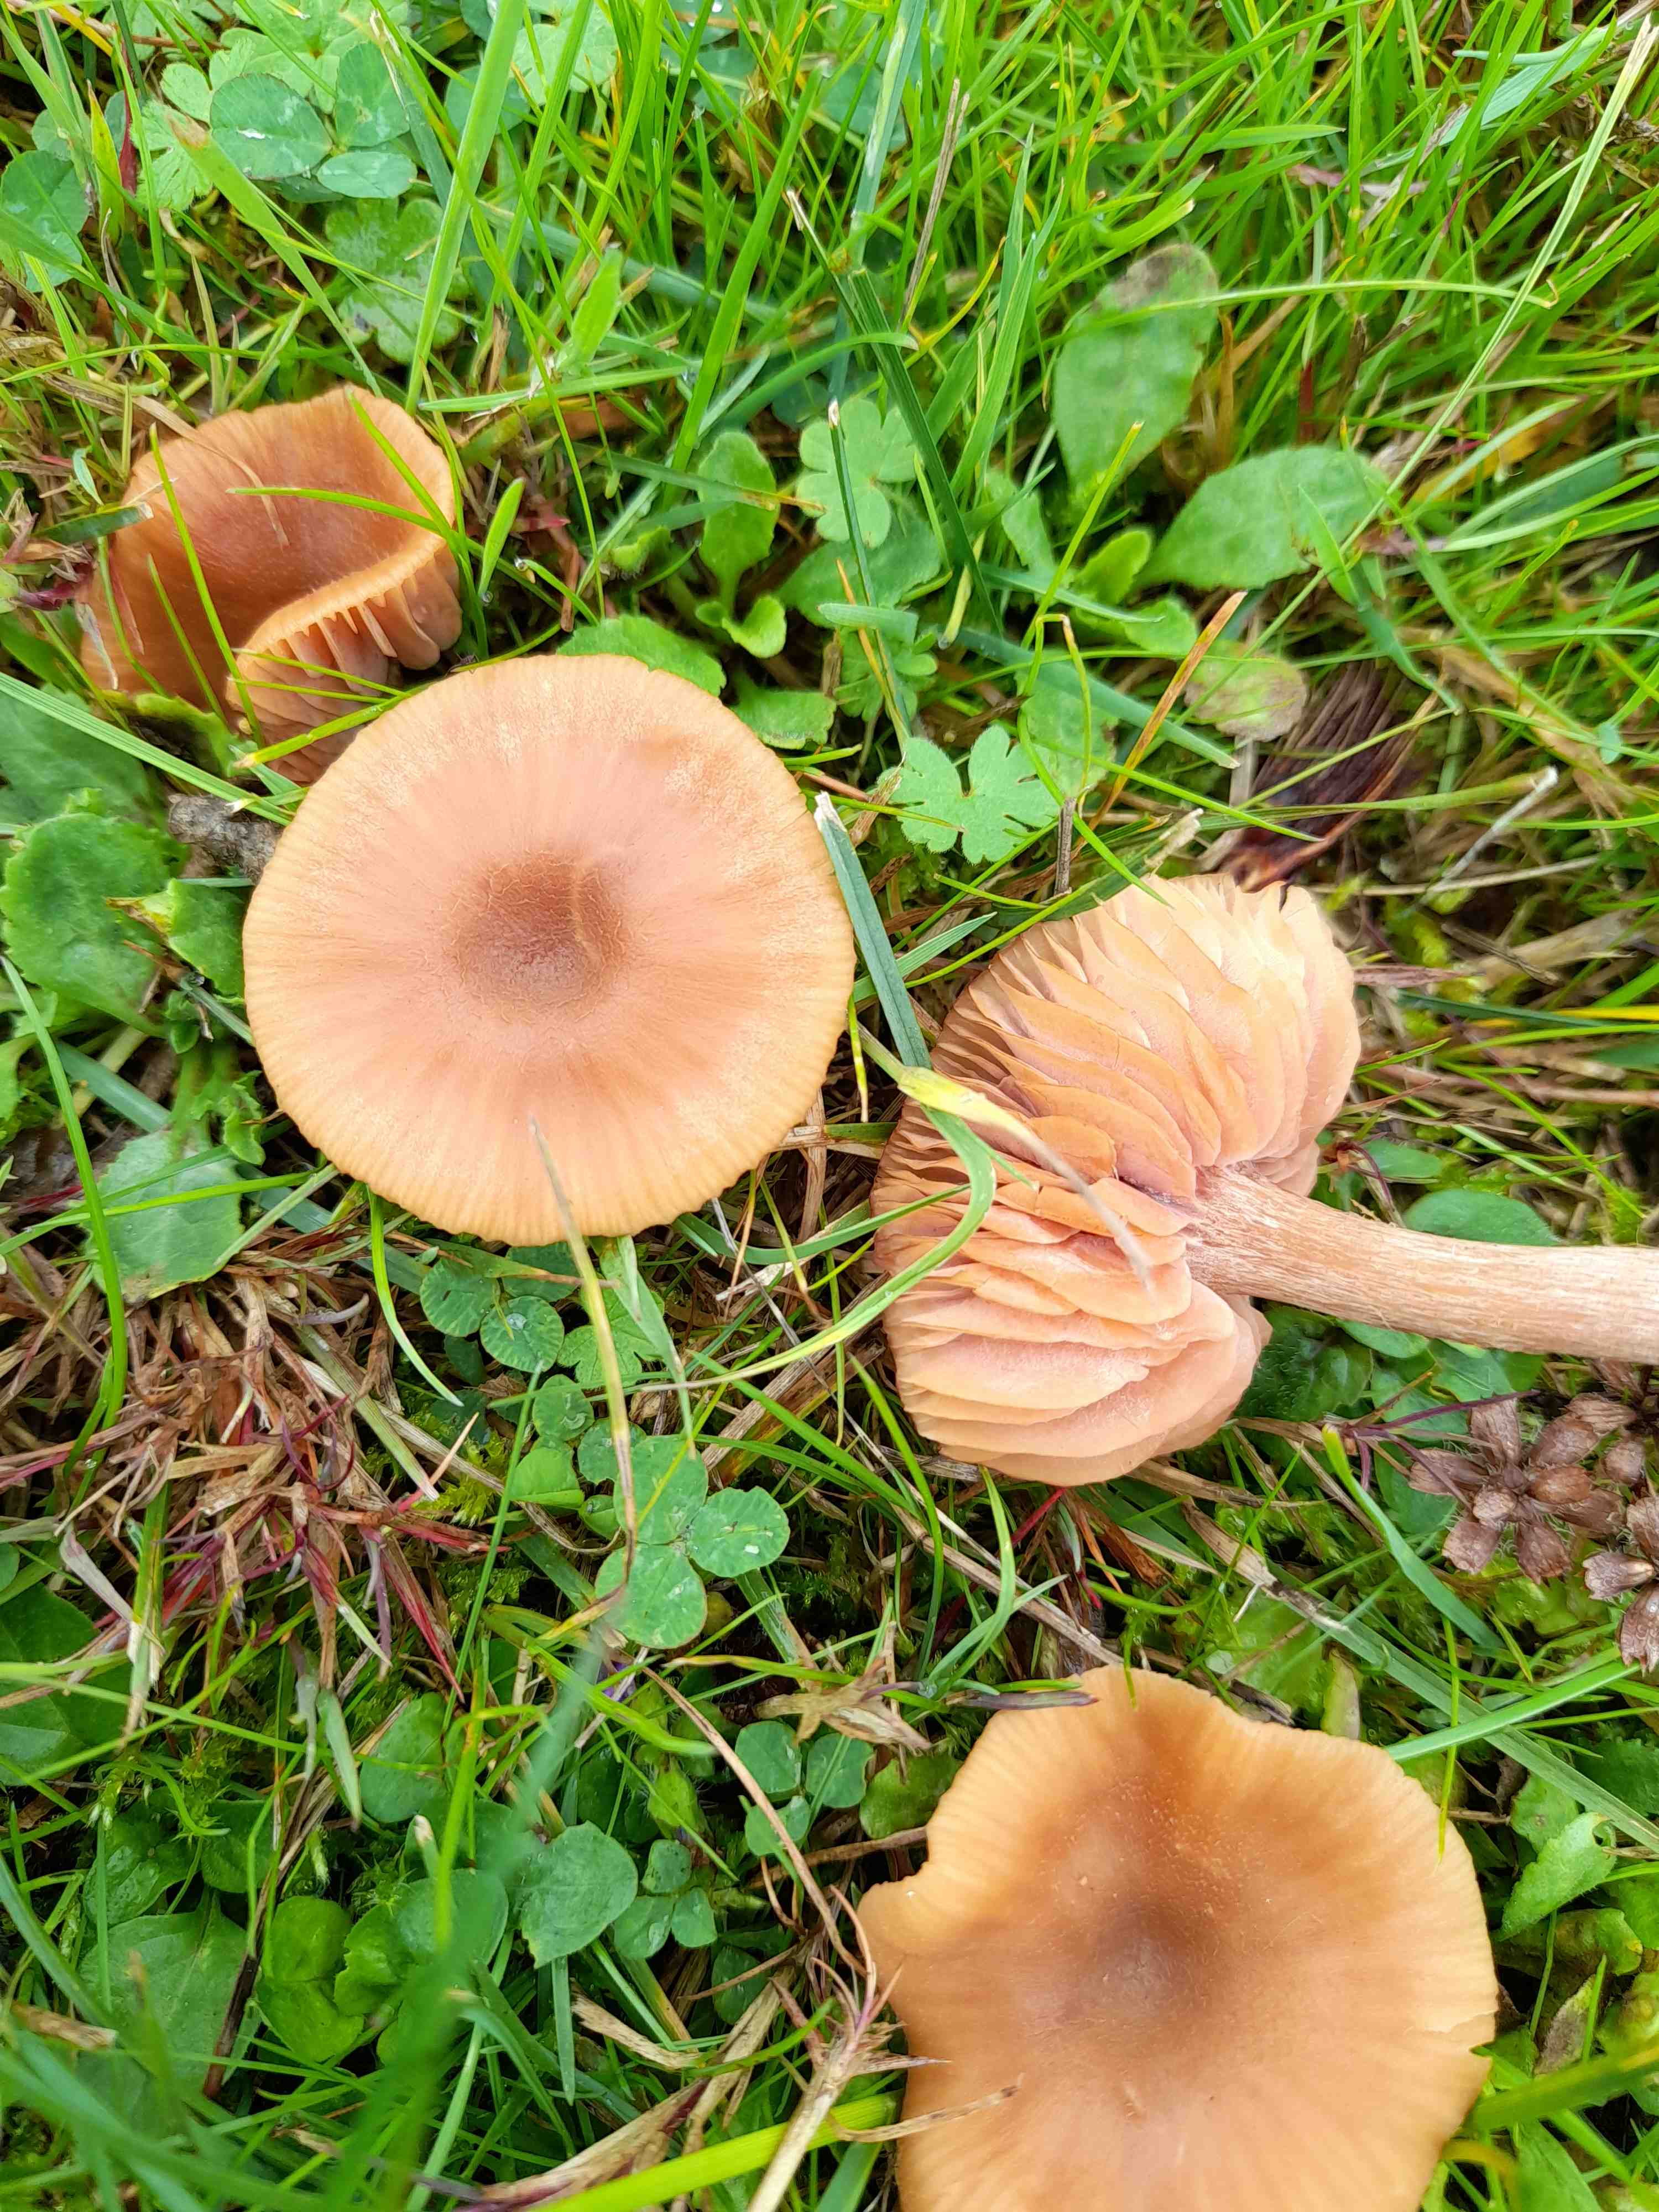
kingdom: Fungi
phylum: Basidiomycota
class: Agaricomycetes
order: Agaricales
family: Hydnangiaceae
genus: Laccaria
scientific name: Laccaria proxima
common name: stor ametysthat
